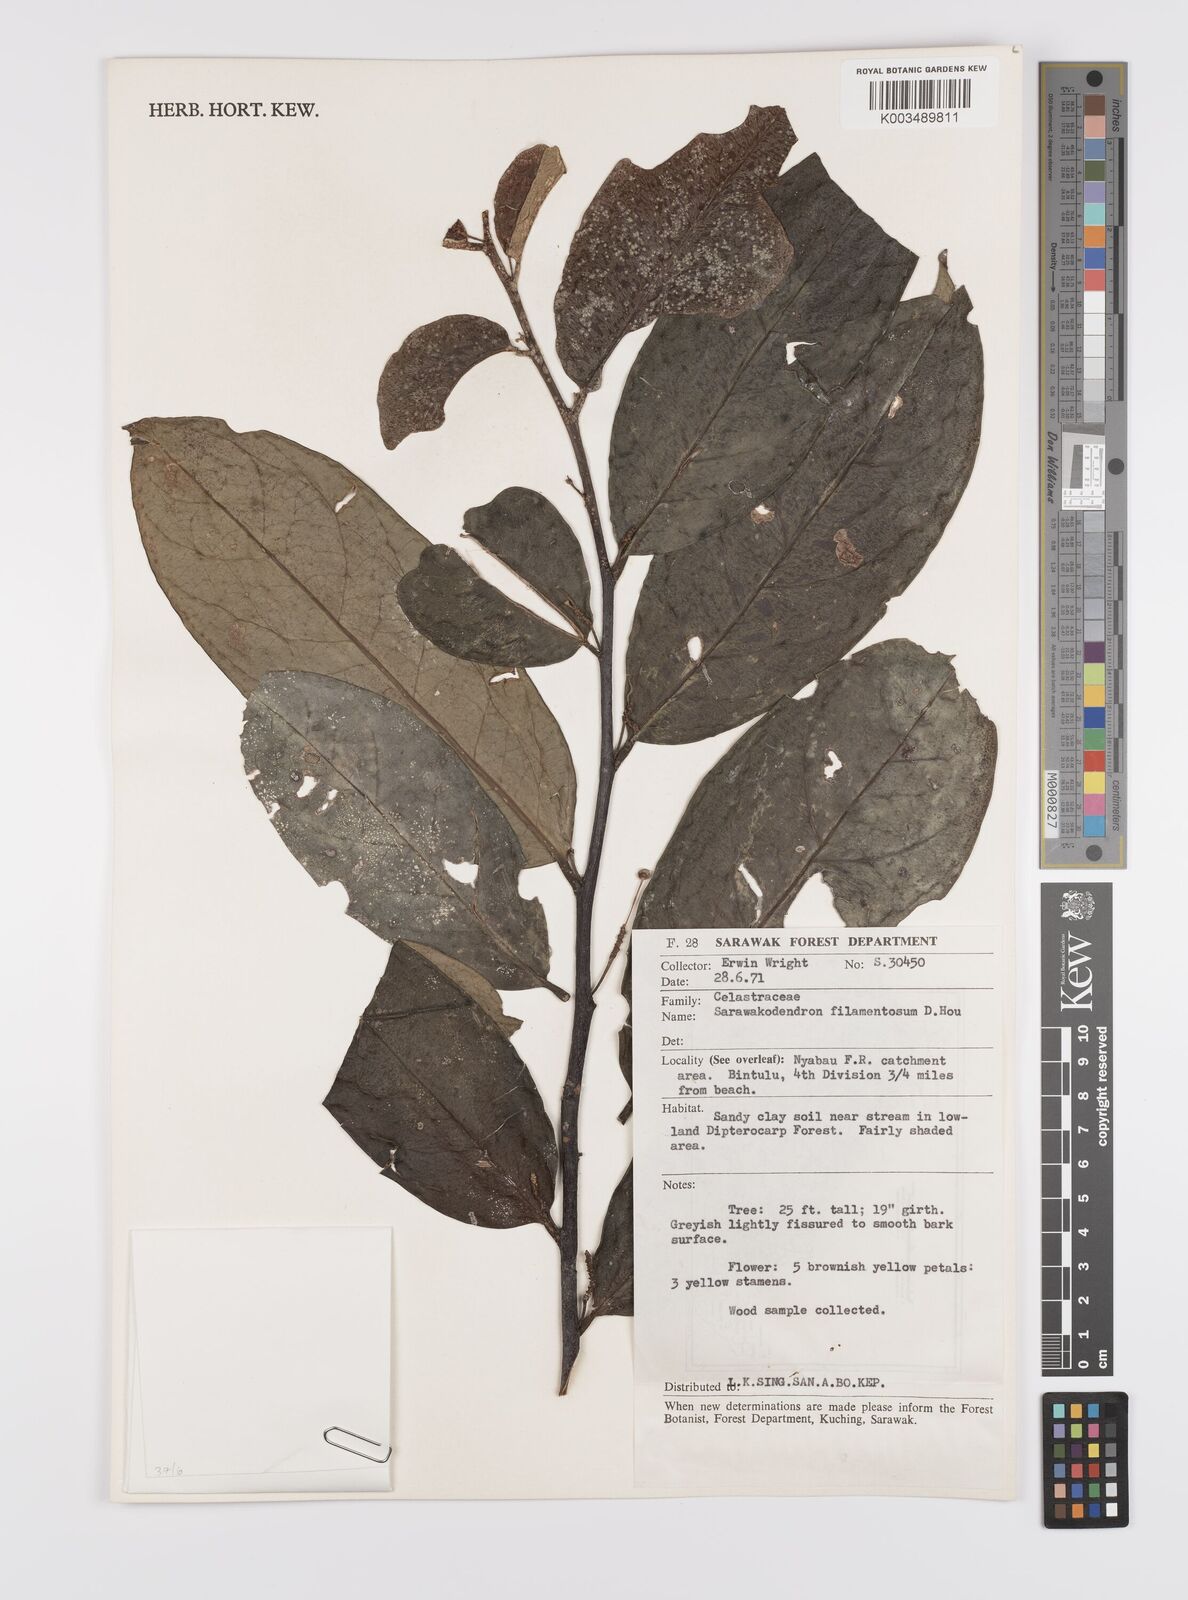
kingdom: Plantae
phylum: Tracheophyta
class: Magnoliopsida
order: Celastrales
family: Celastraceae
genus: Sarawakodendron
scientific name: Sarawakodendron filamentosum
